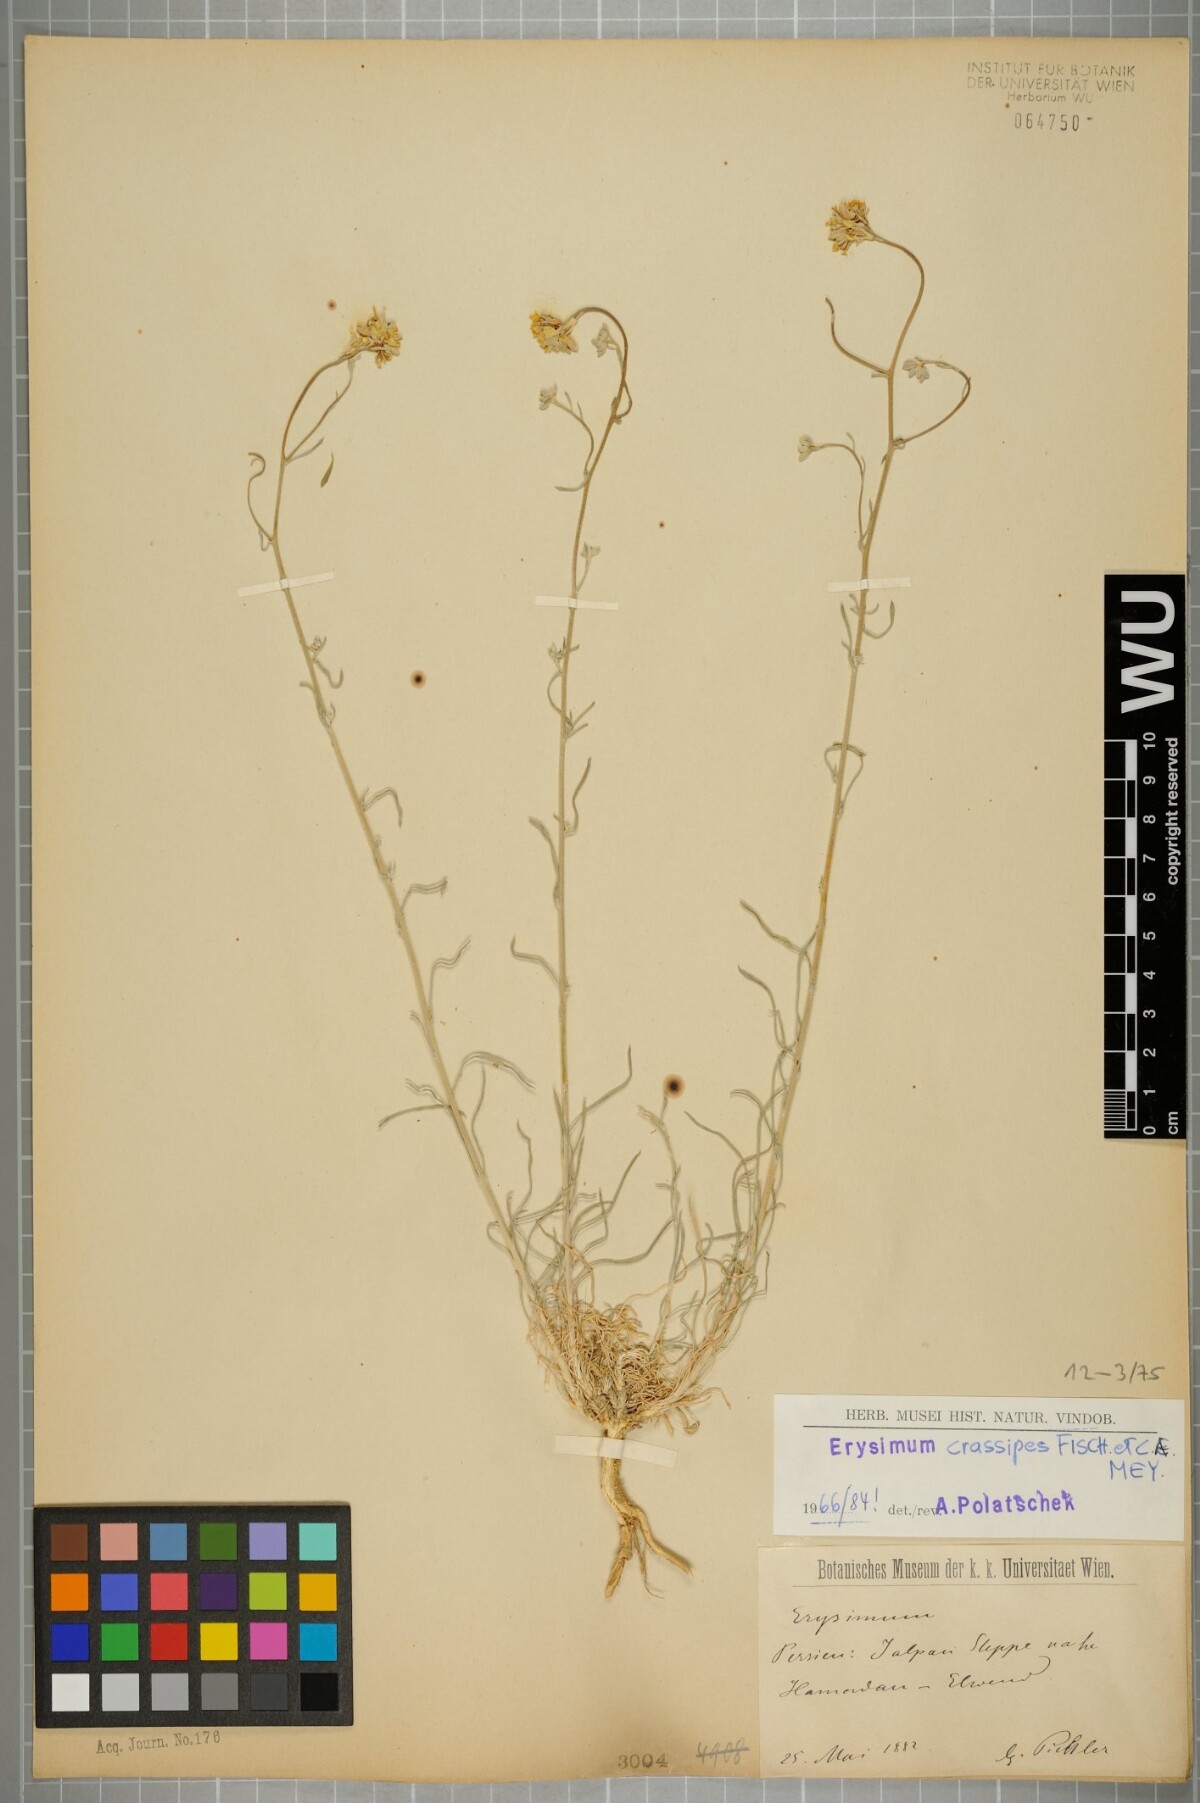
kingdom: Plantae
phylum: Tracheophyta
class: Magnoliopsida
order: Brassicales
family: Brassicaceae
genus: Erysimum
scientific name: Erysimum crassipes
